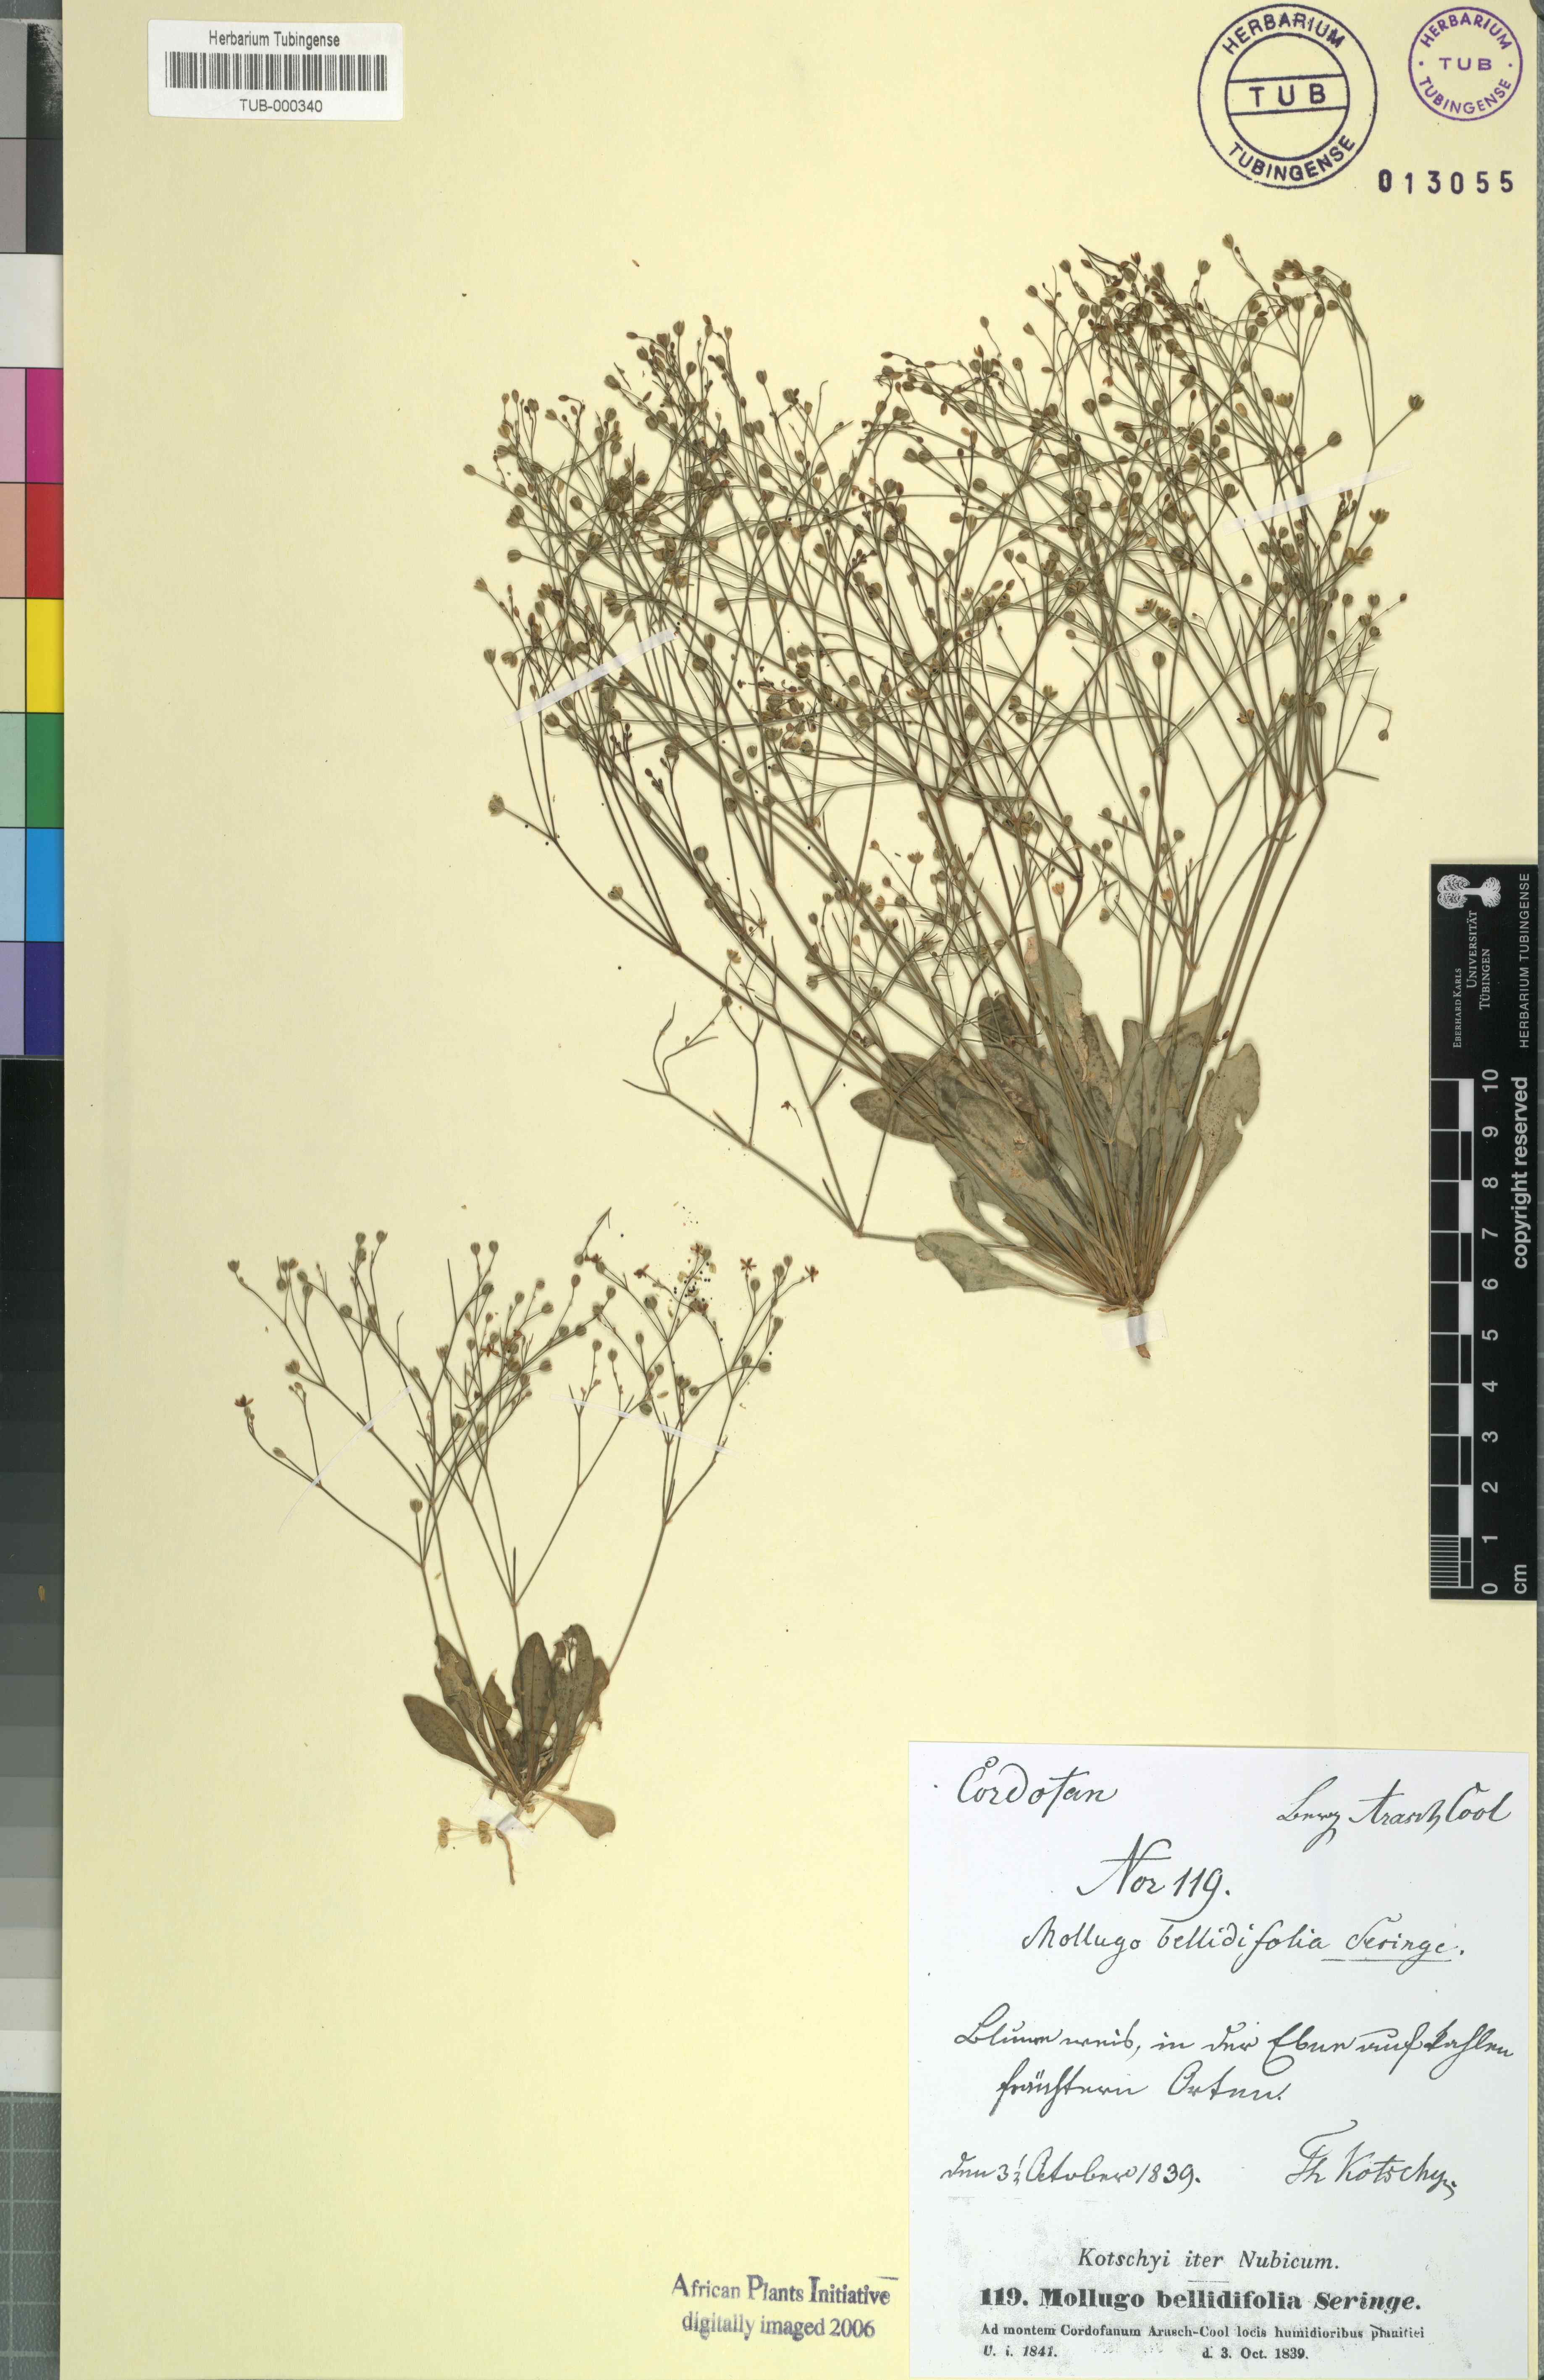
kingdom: Plantae
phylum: Tracheophyta
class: Magnoliopsida
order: Caryophyllales
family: Molluginaceae
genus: Paramollugo
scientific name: Paramollugo nudicaulis
